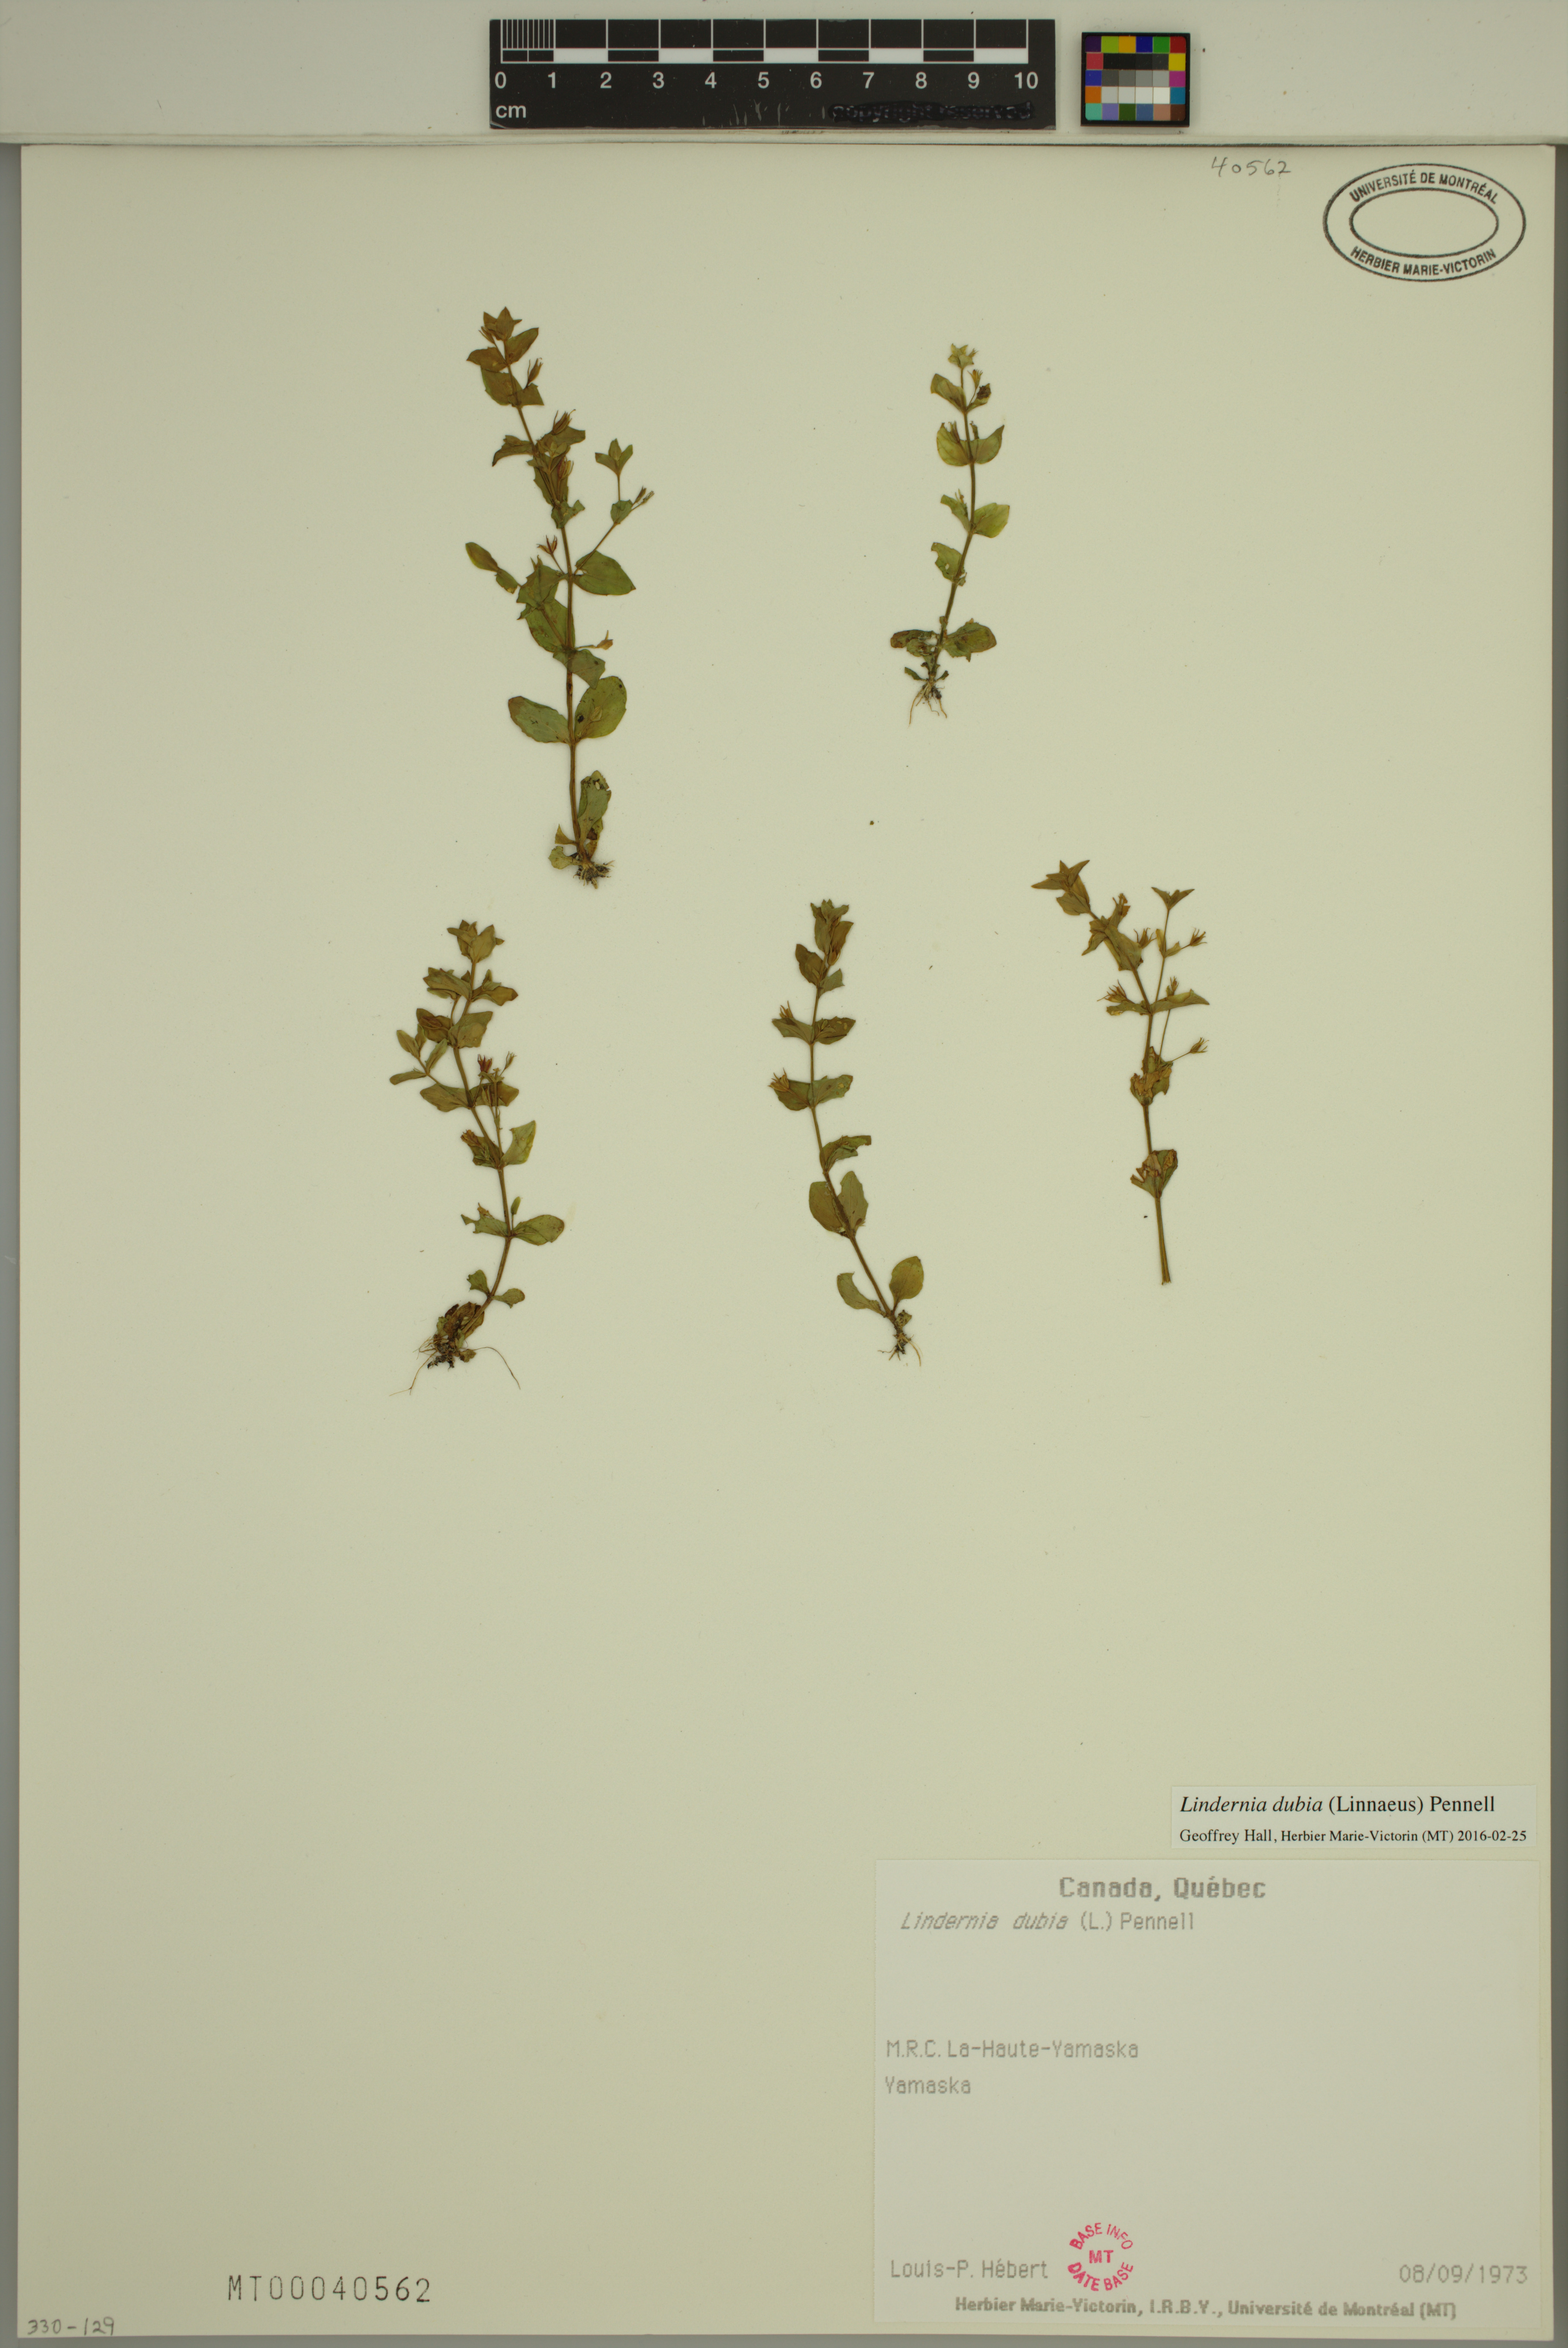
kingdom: Plantae
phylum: Tracheophyta
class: Magnoliopsida
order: Lamiales
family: Linderniaceae
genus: Lindernia
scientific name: Lindernia dubia
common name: Annual false pimpernel
